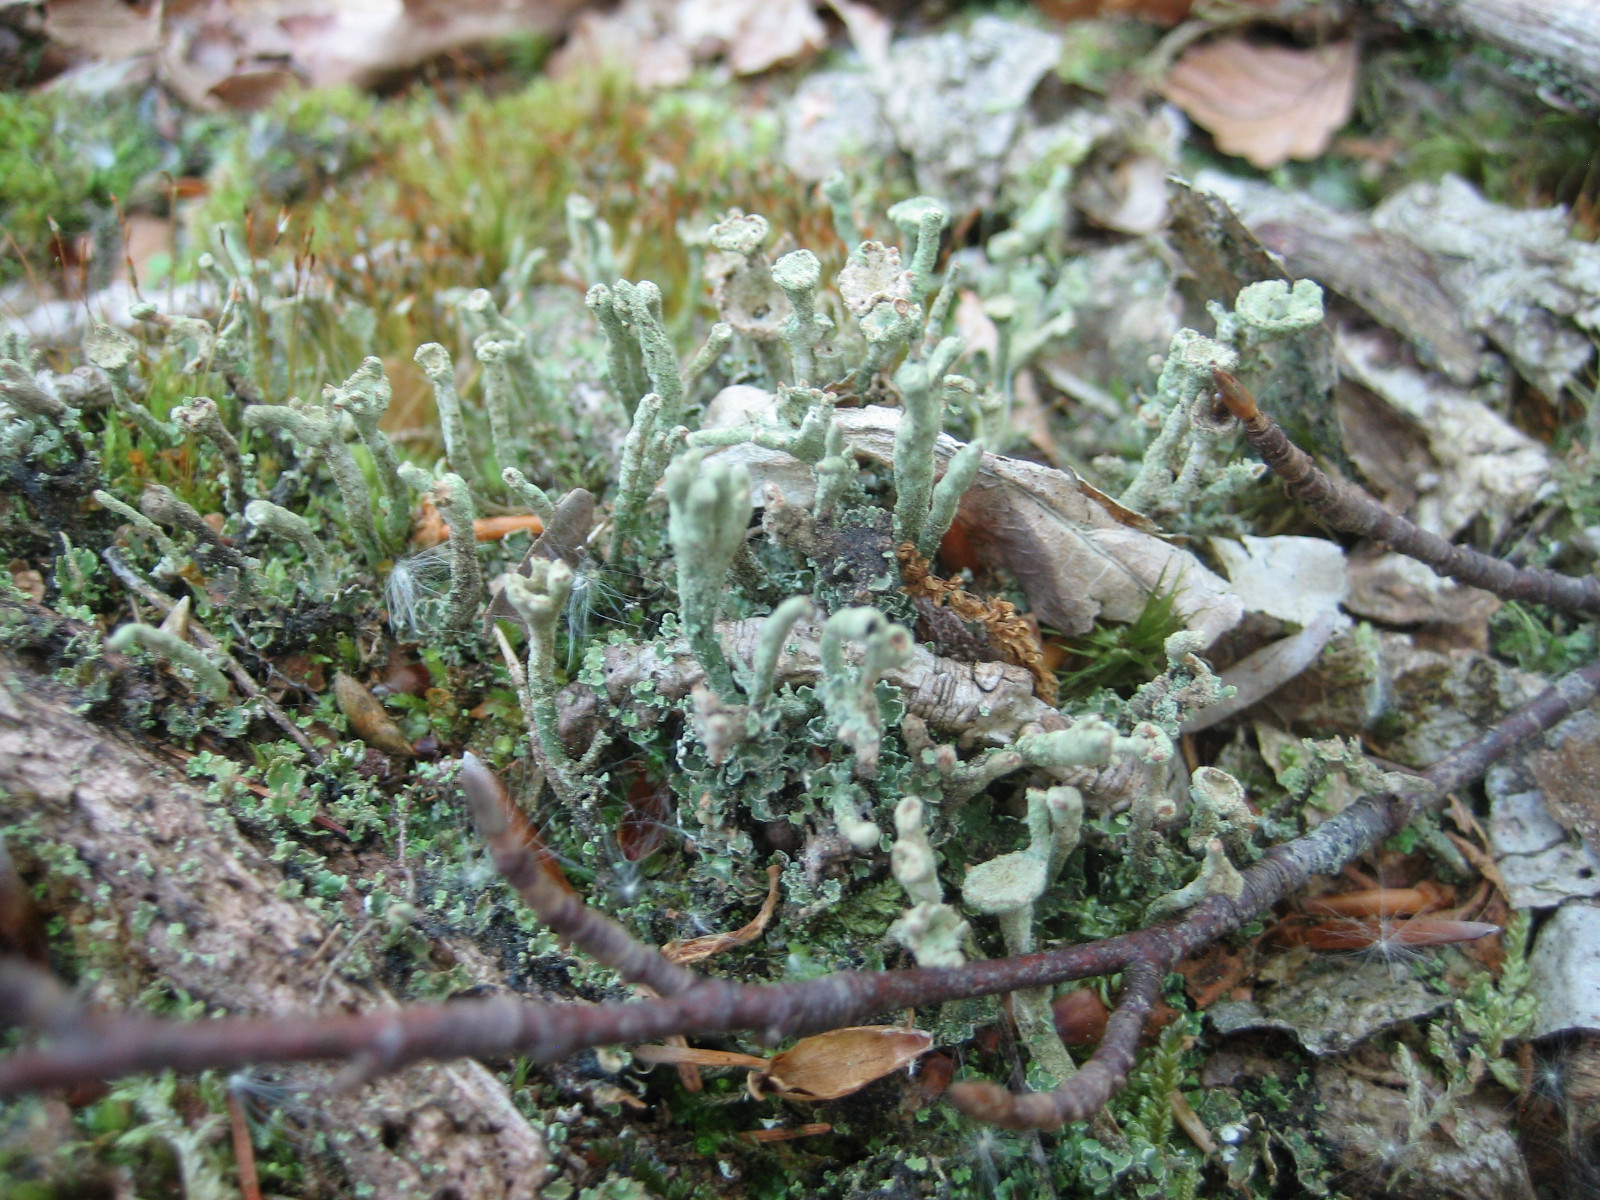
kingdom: Fungi
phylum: Ascomycota
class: Lecanoromycetes
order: Lecanorales
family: Cladoniaceae
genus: Cladonia
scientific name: Cladonia chlorophaea
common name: Mealy pixie cup
